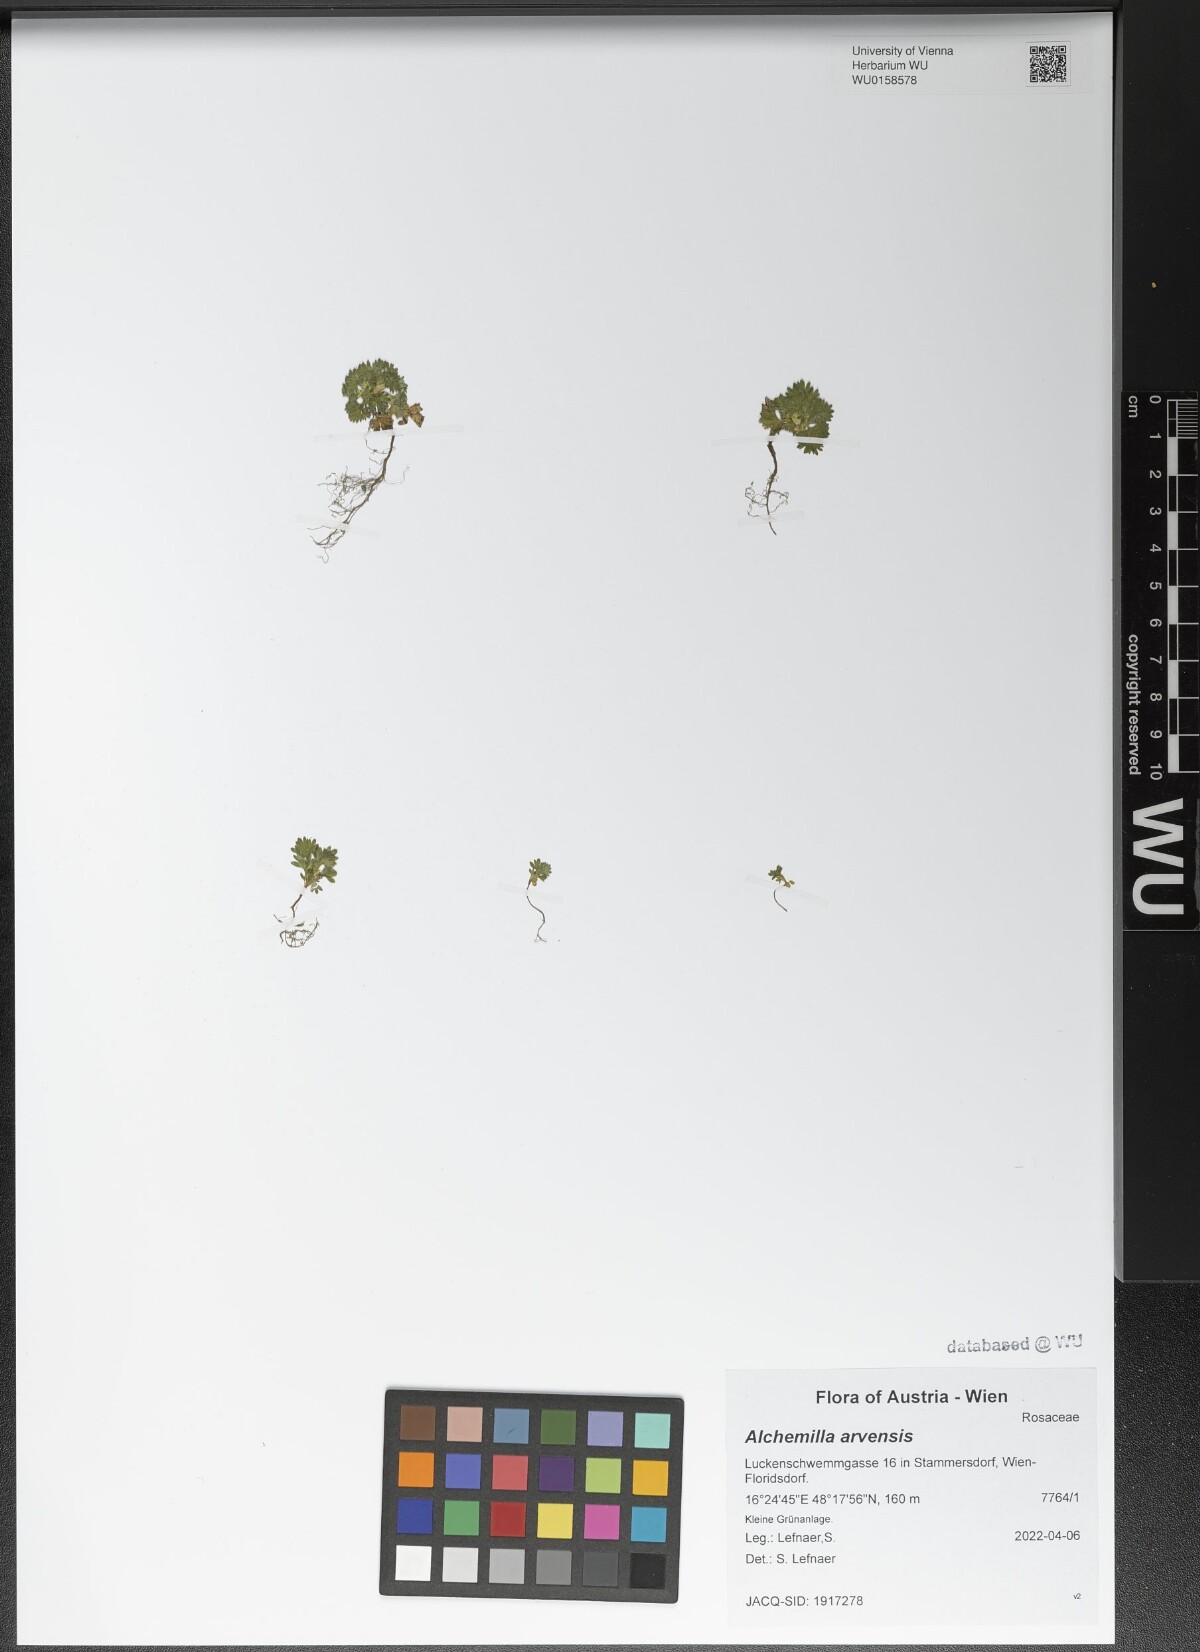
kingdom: Plantae
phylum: Tracheophyta
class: Magnoliopsida
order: Rosales
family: Rosaceae
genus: Aphanes
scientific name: Aphanes arvensis
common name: Parsley-piert
